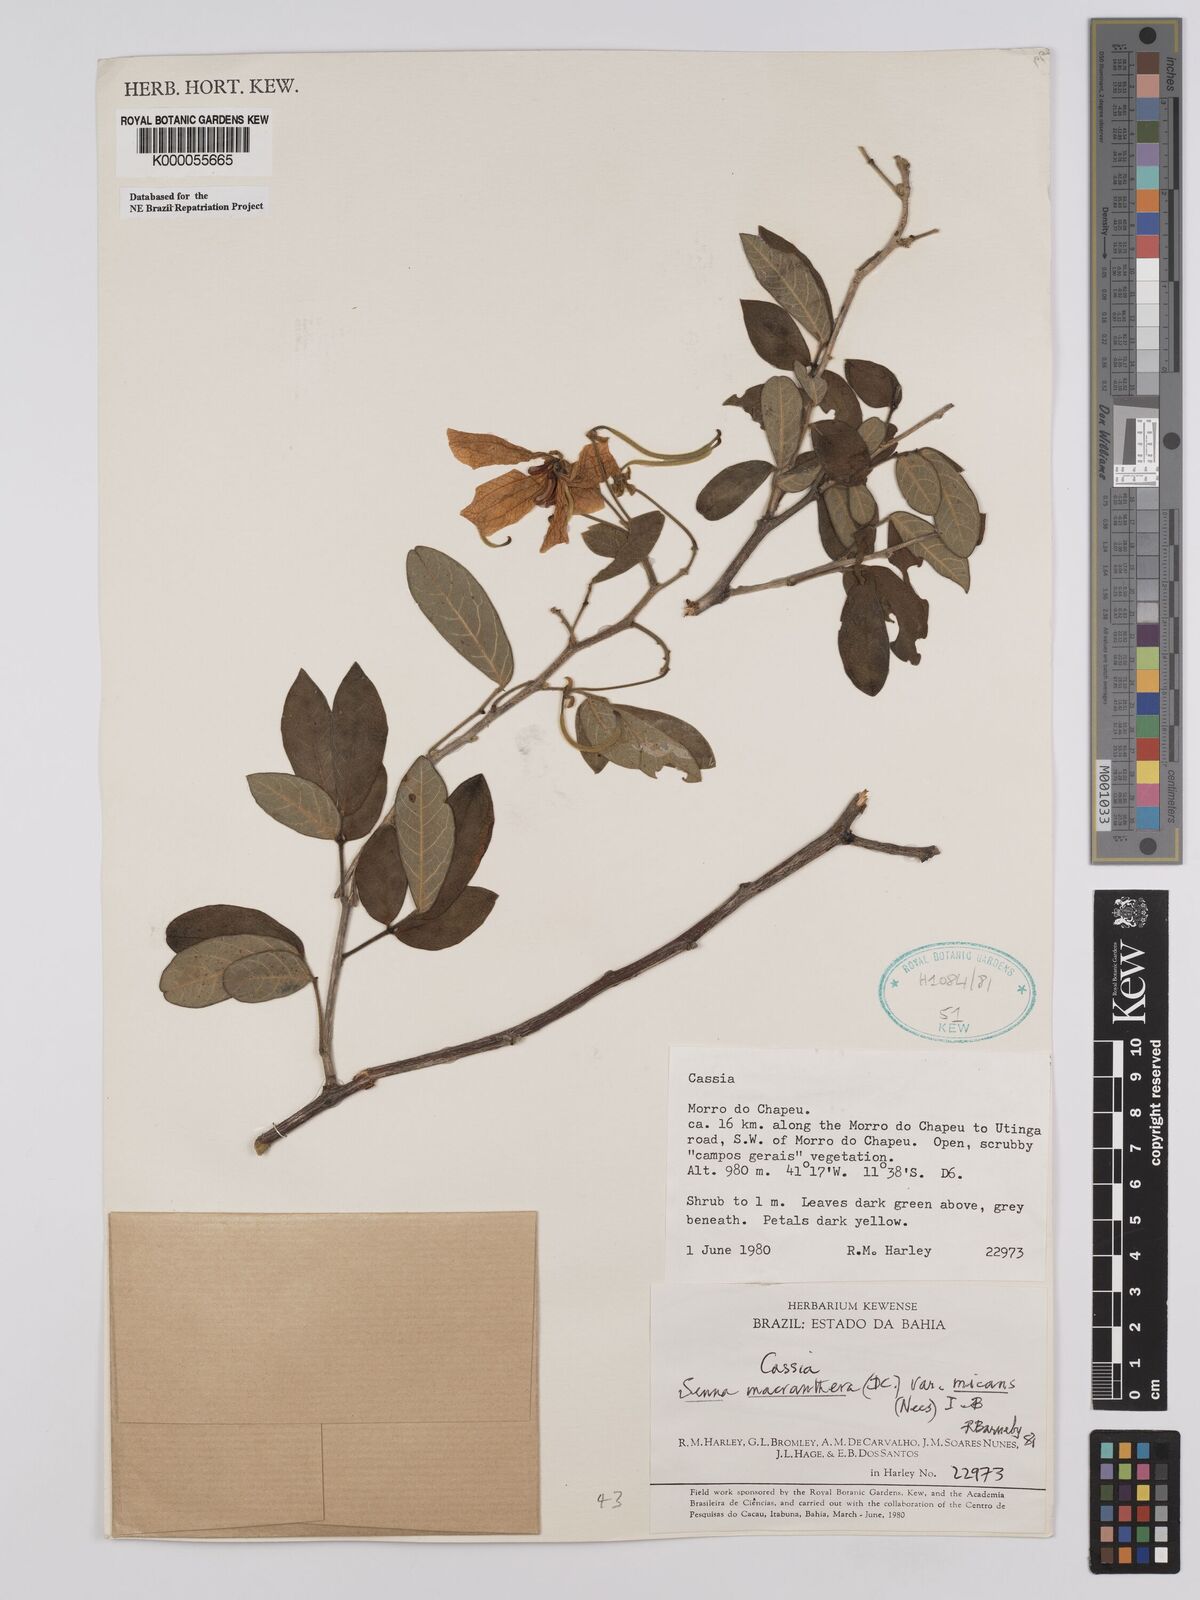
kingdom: Plantae
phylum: Tracheophyta
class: Magnoliopsida
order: Fabales
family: Fabaceae
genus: Senna
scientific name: Senna macranthera
